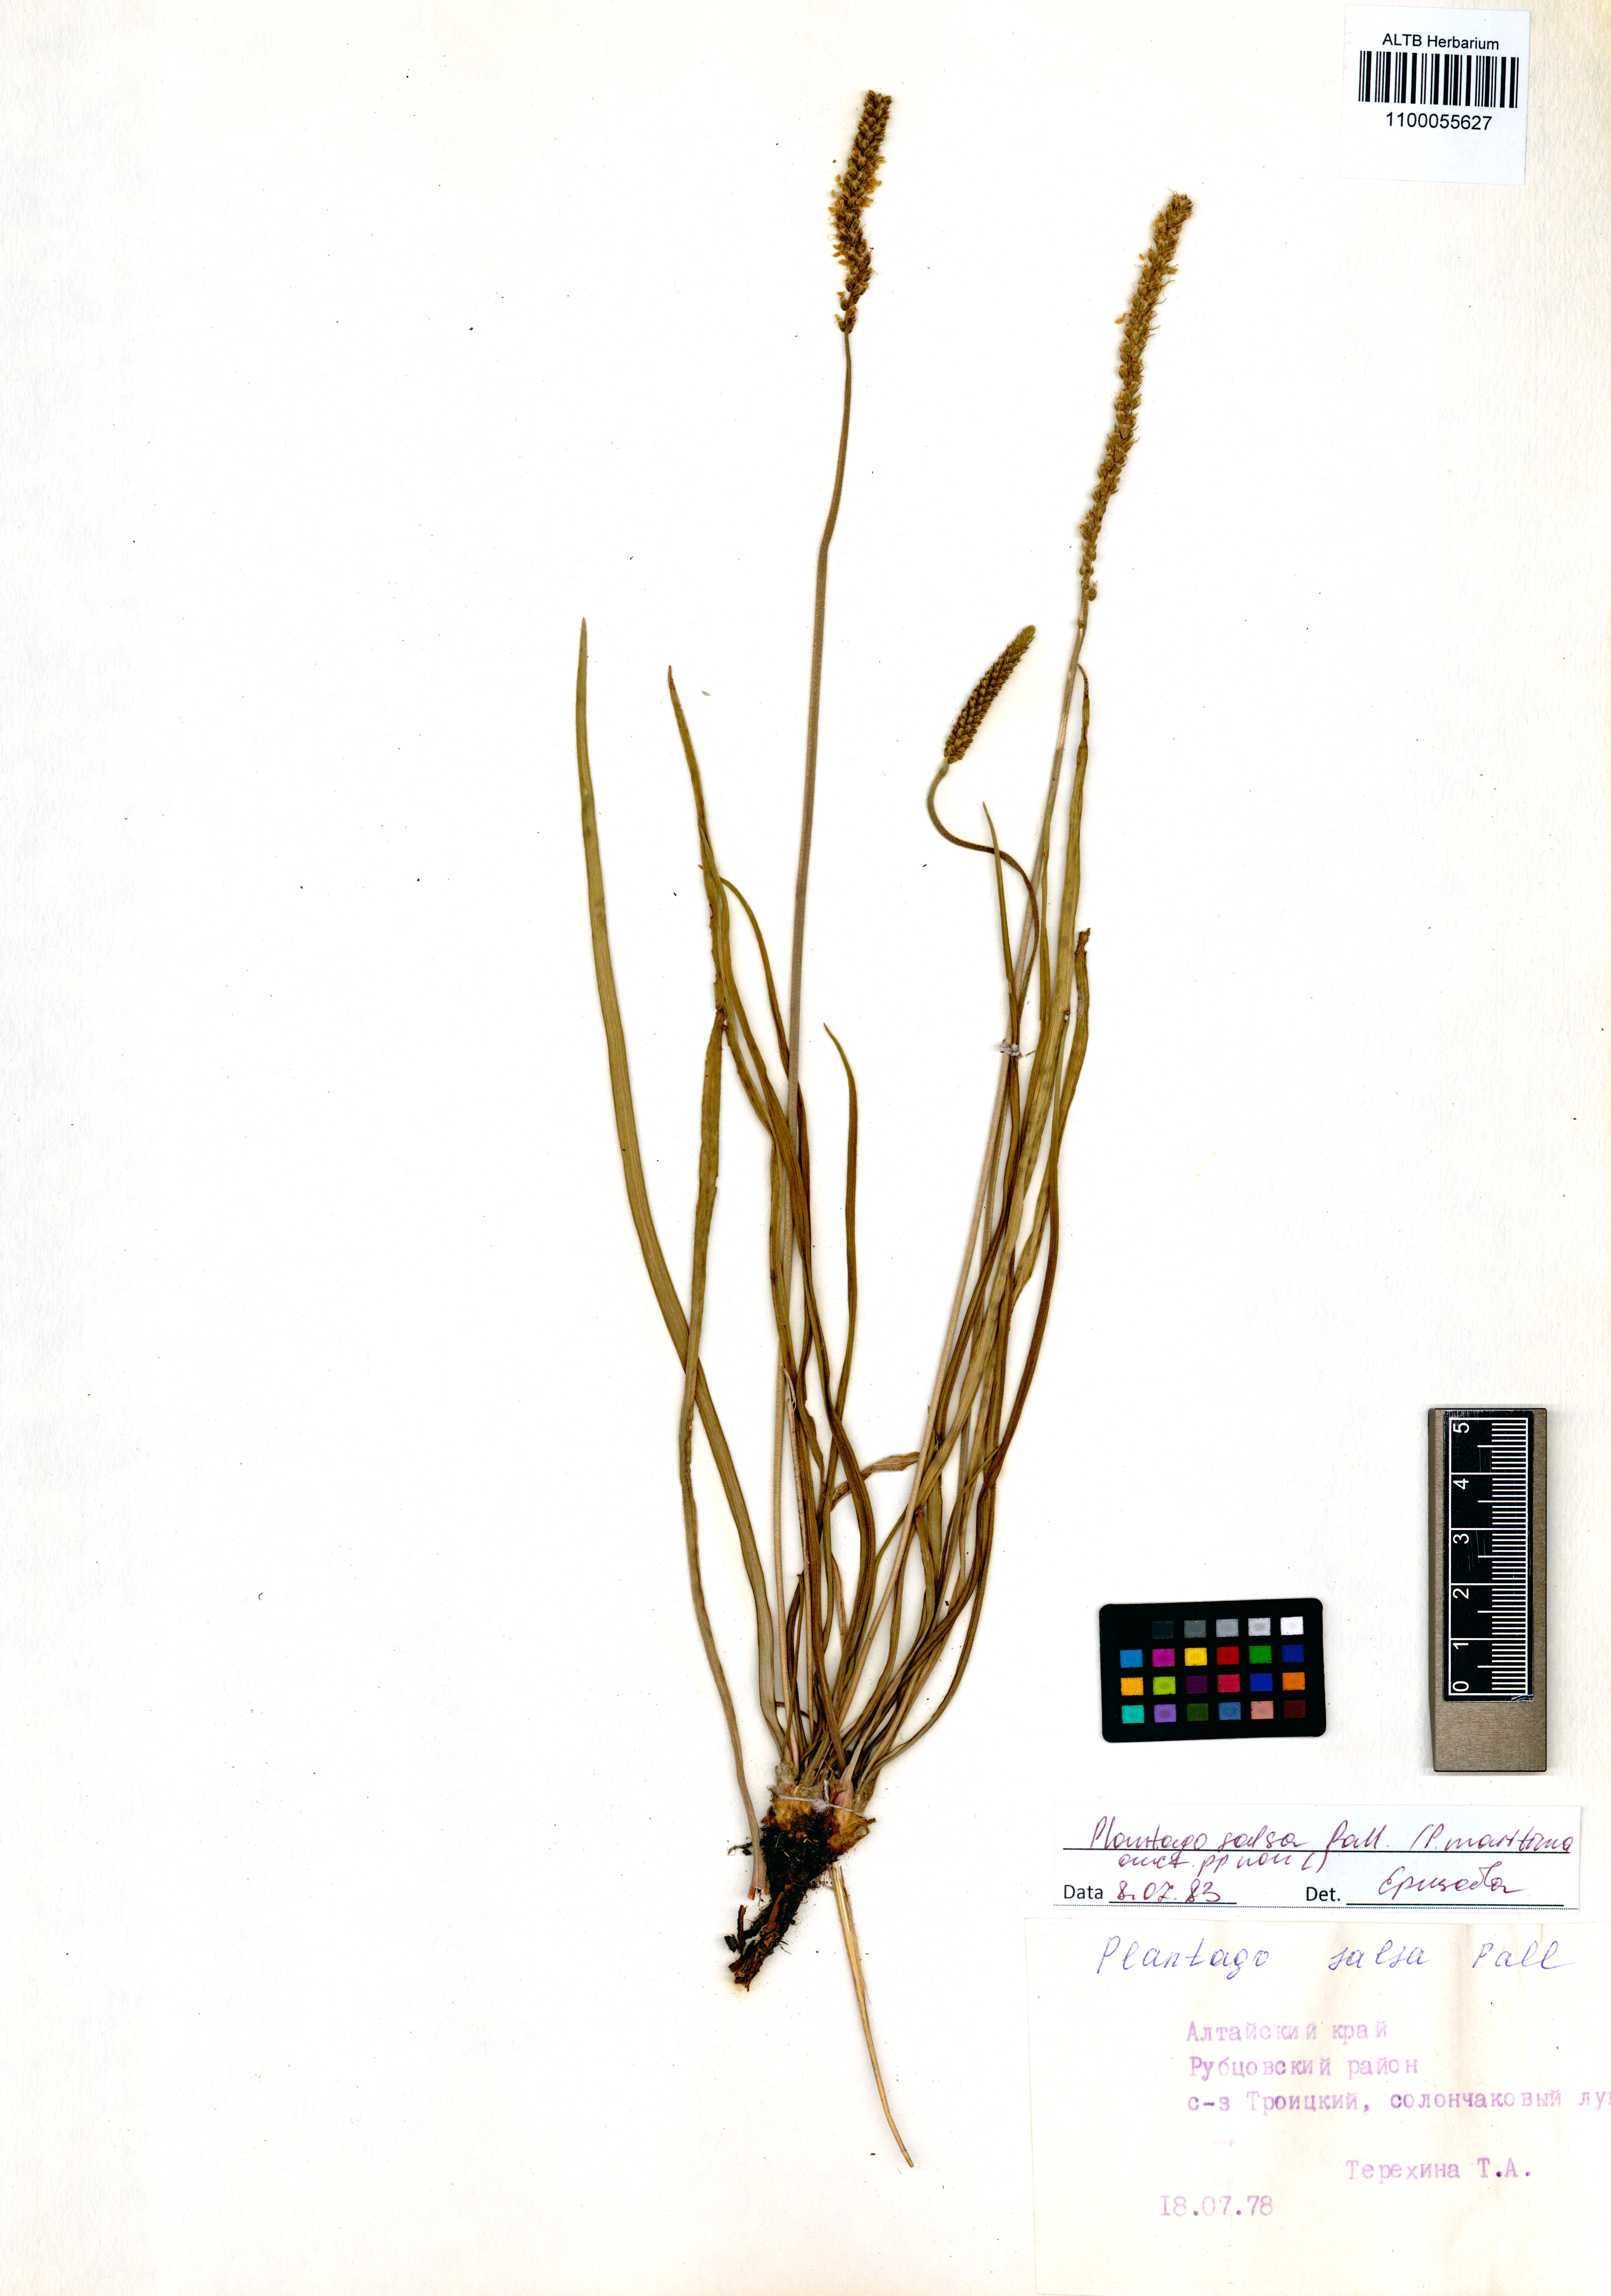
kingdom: Plantae
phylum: Tracheophyta
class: Magnoliopsida
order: Lamiales
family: Plantaginaceae
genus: Plantago
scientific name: Plantago salsa
